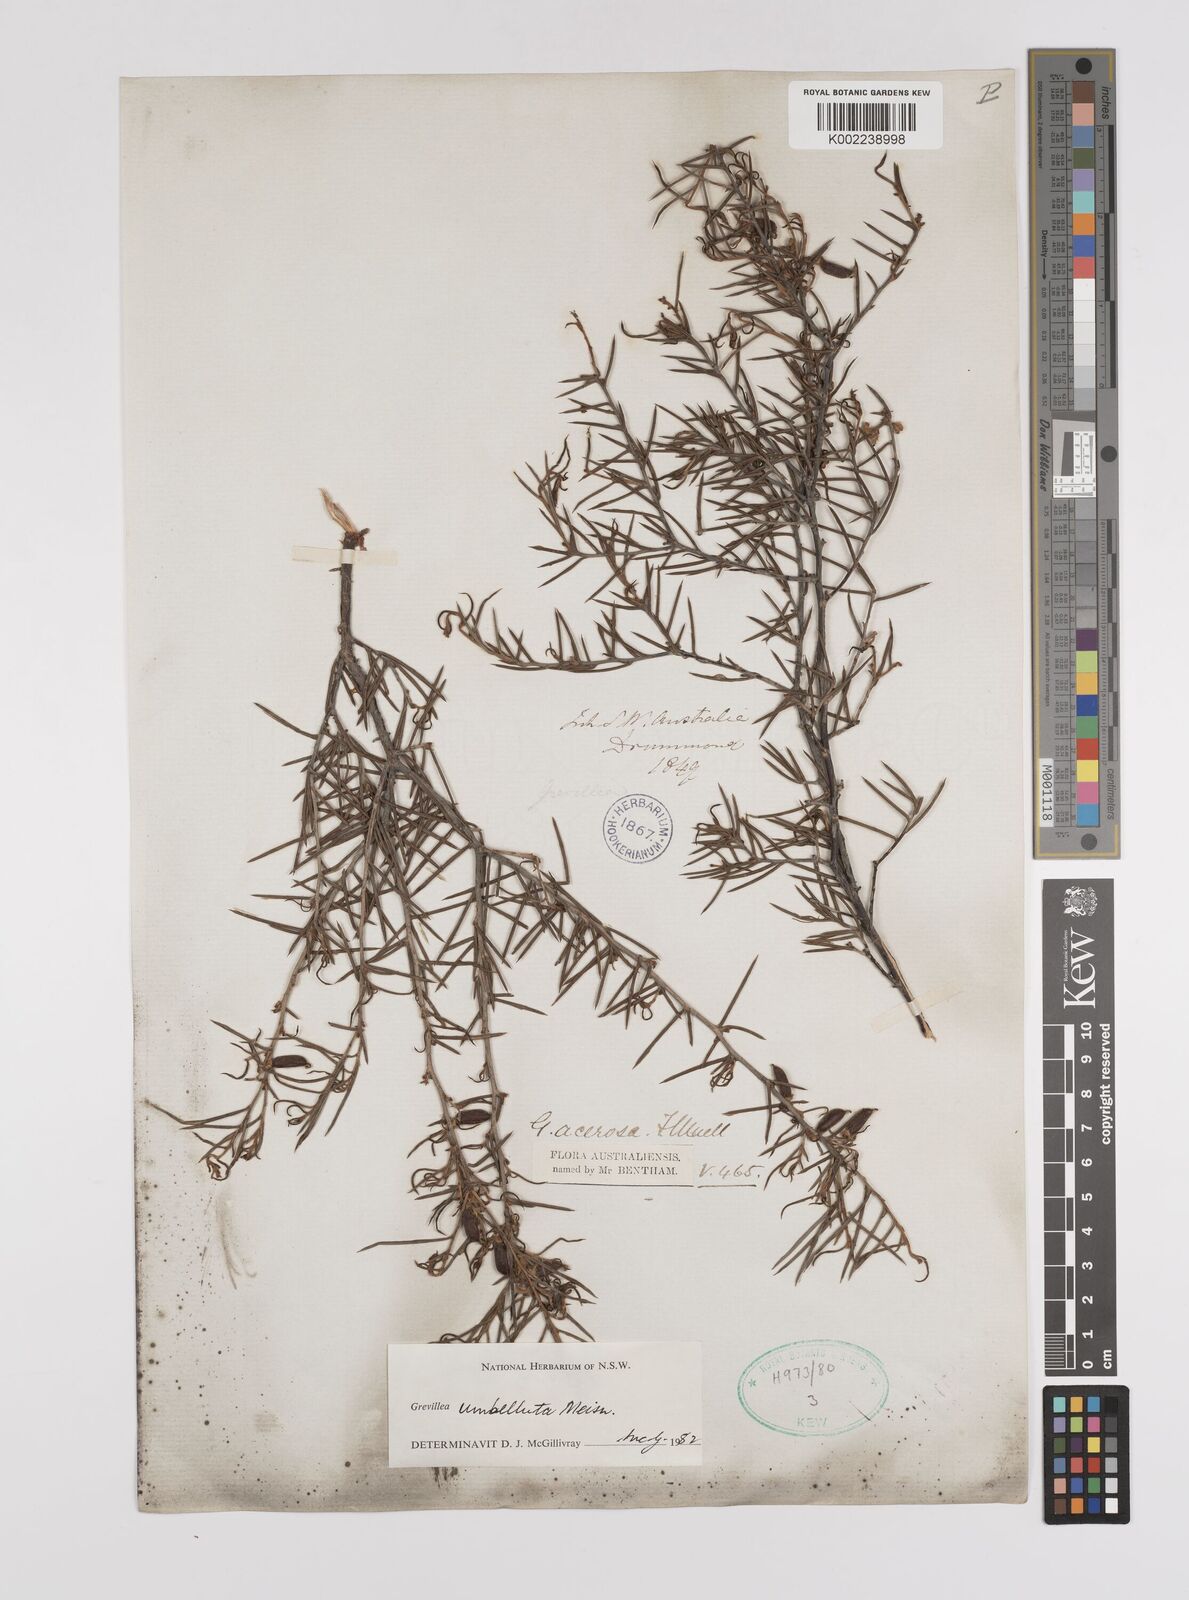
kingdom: Plantae
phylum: Tracheophyta
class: Magnoliopsida
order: Proteales
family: Proteaceae
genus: Grevillea
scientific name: Grevillea umbellulata
